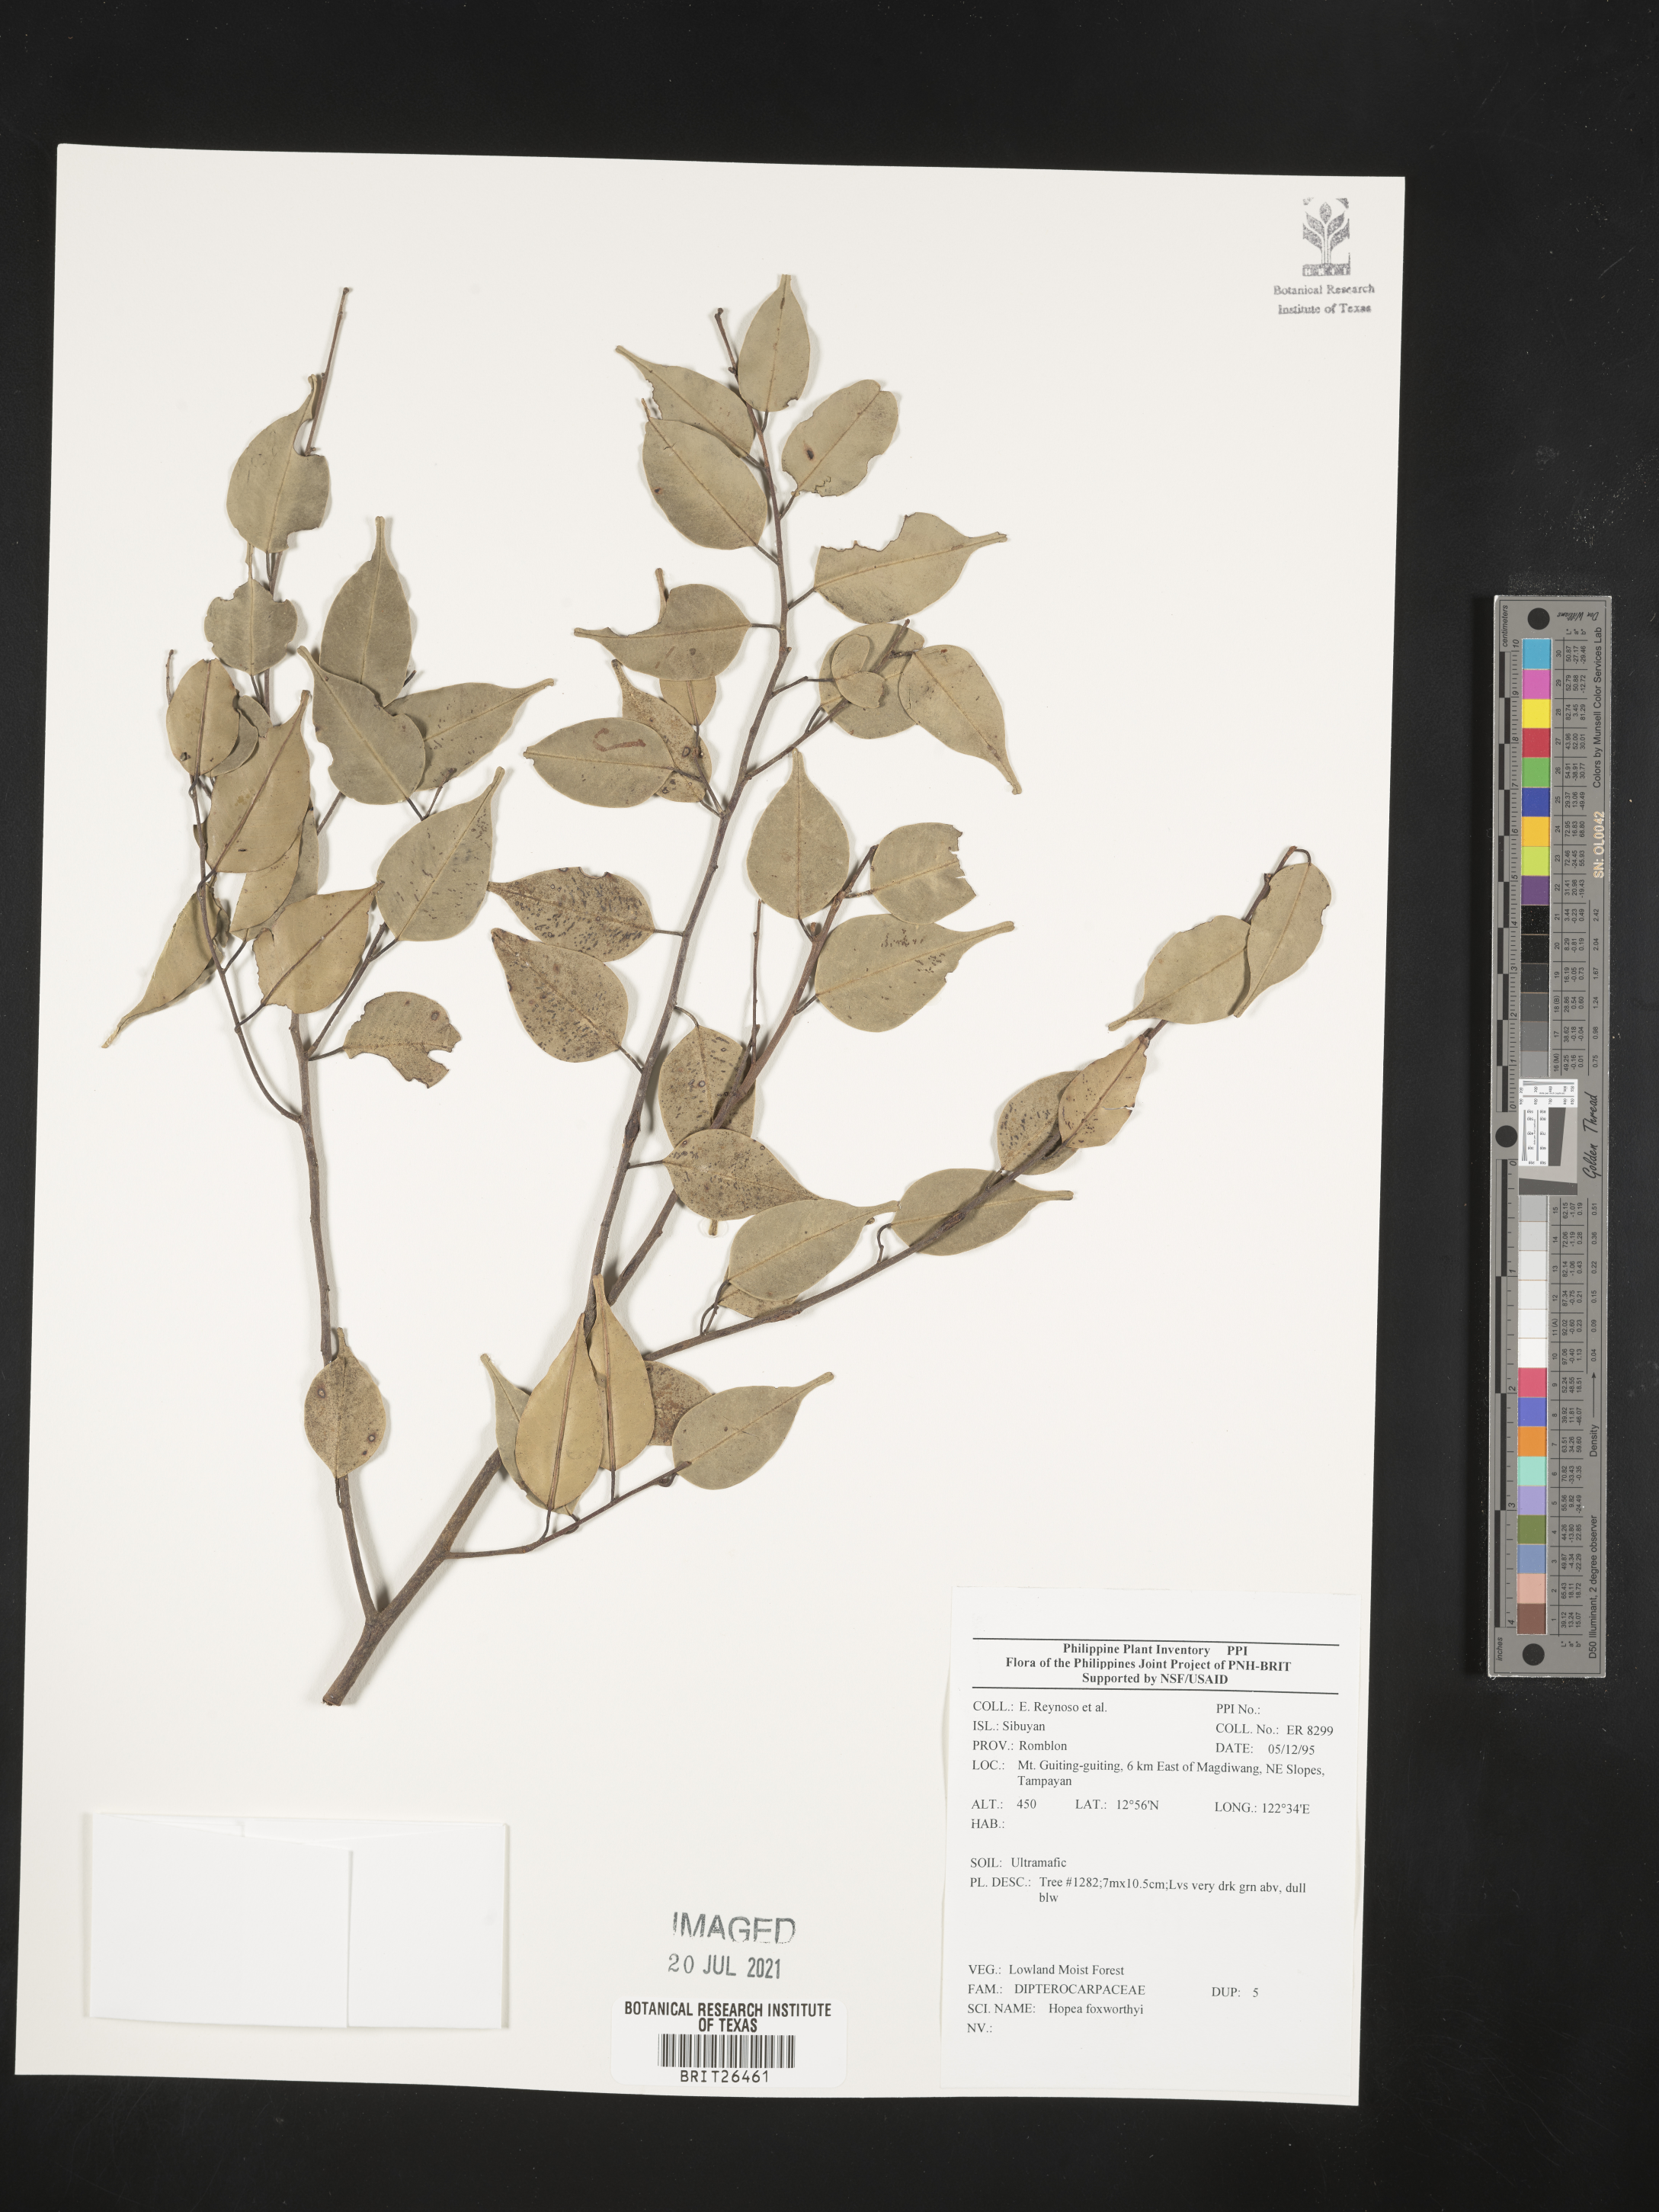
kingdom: Plantae
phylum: Tracheophyta
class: Magnoliopsida
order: Malvales
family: Dipterocarpaceae
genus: Hopea
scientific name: Hopea foxworthyi
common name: Dalingdingan
